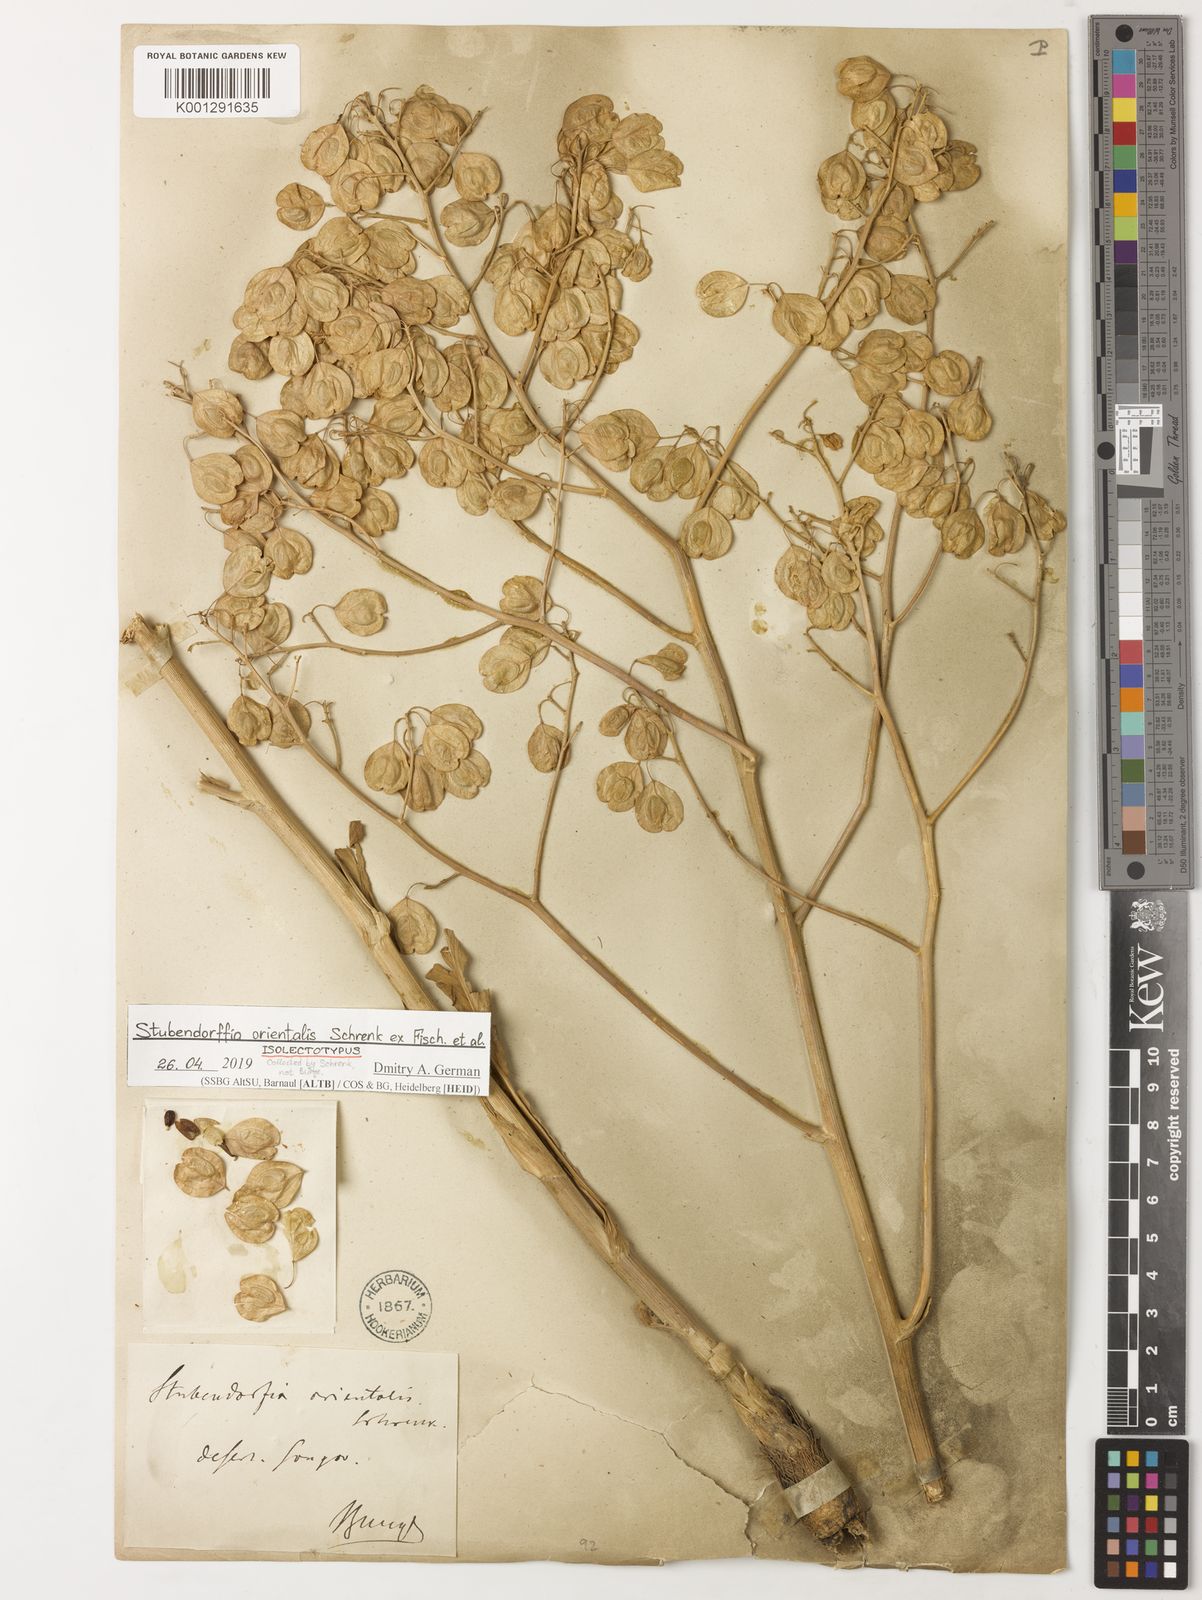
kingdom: Plantae
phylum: Tracheophyta
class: Magnoliopsida
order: Brassicales
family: Brassicaceae
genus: Lepidium
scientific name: Lepidium
